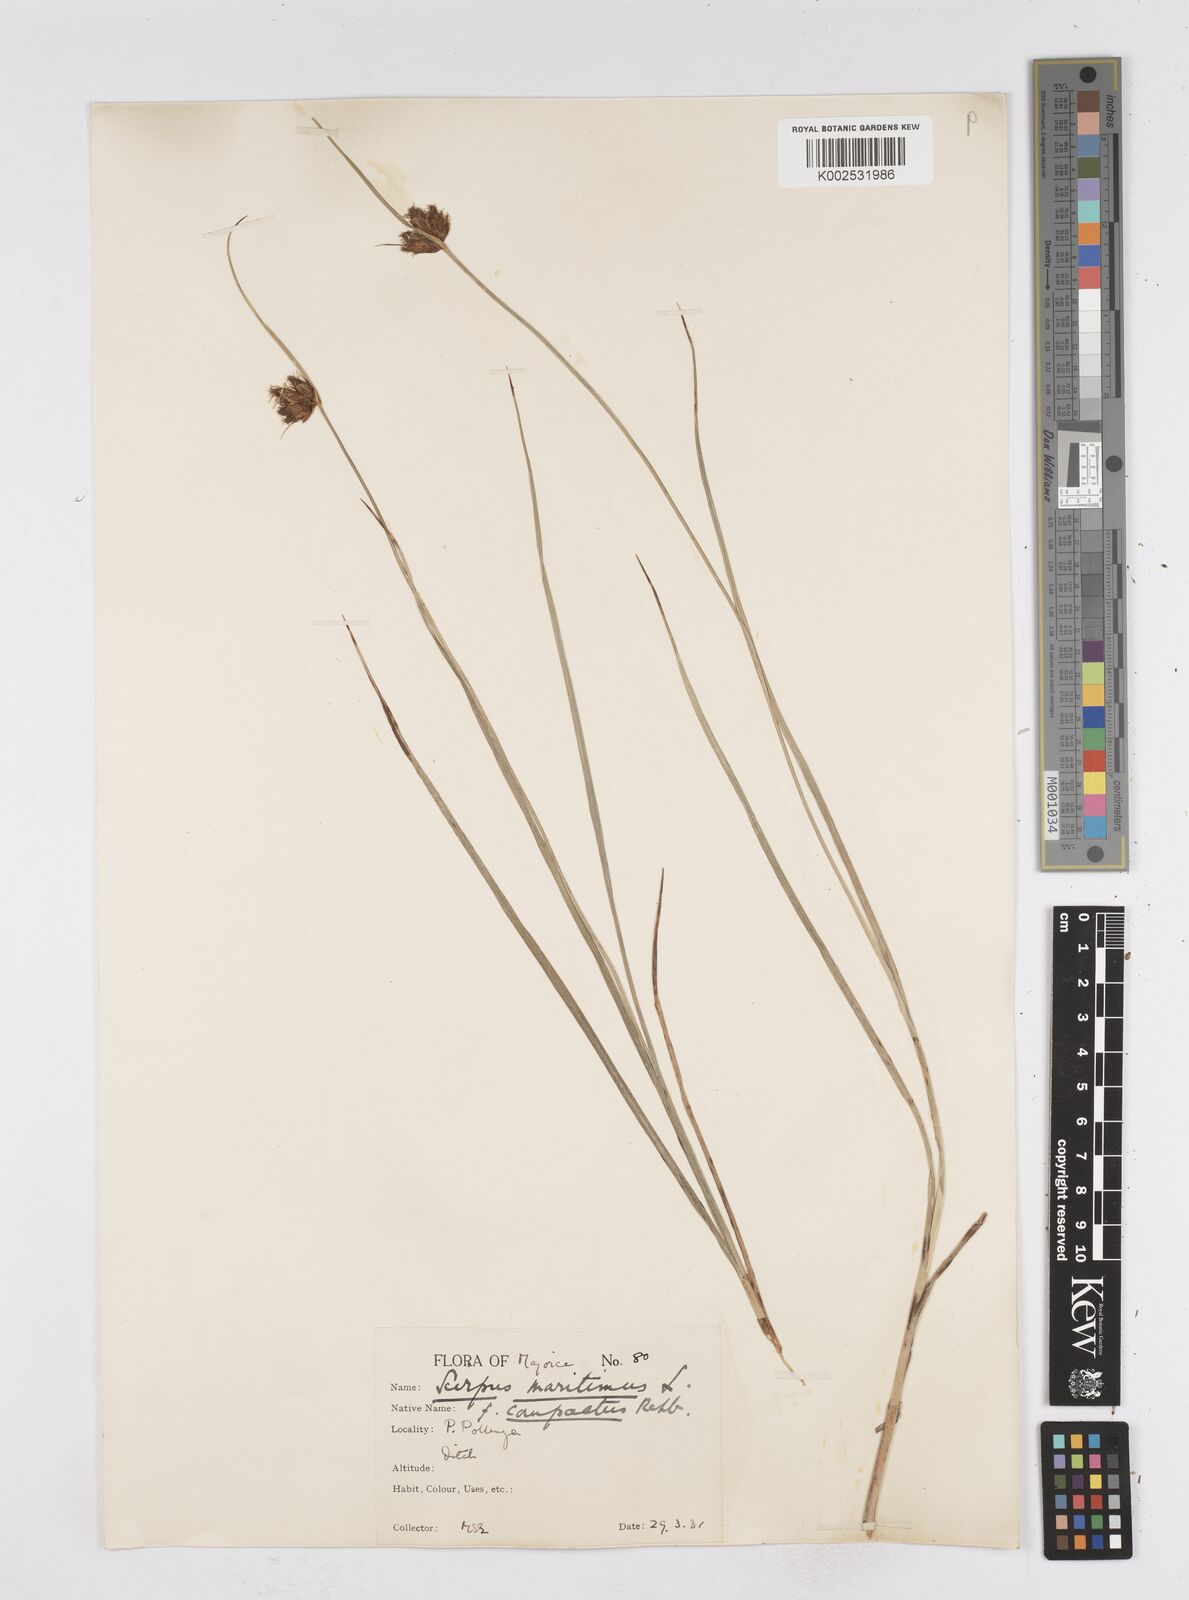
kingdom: Plantae
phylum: Tracheophyta
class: Liliopsida
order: Poales
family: Cyperaceae
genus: Bolboschoenus
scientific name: Bolboschoenus maritimus
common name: Sea club-rush
